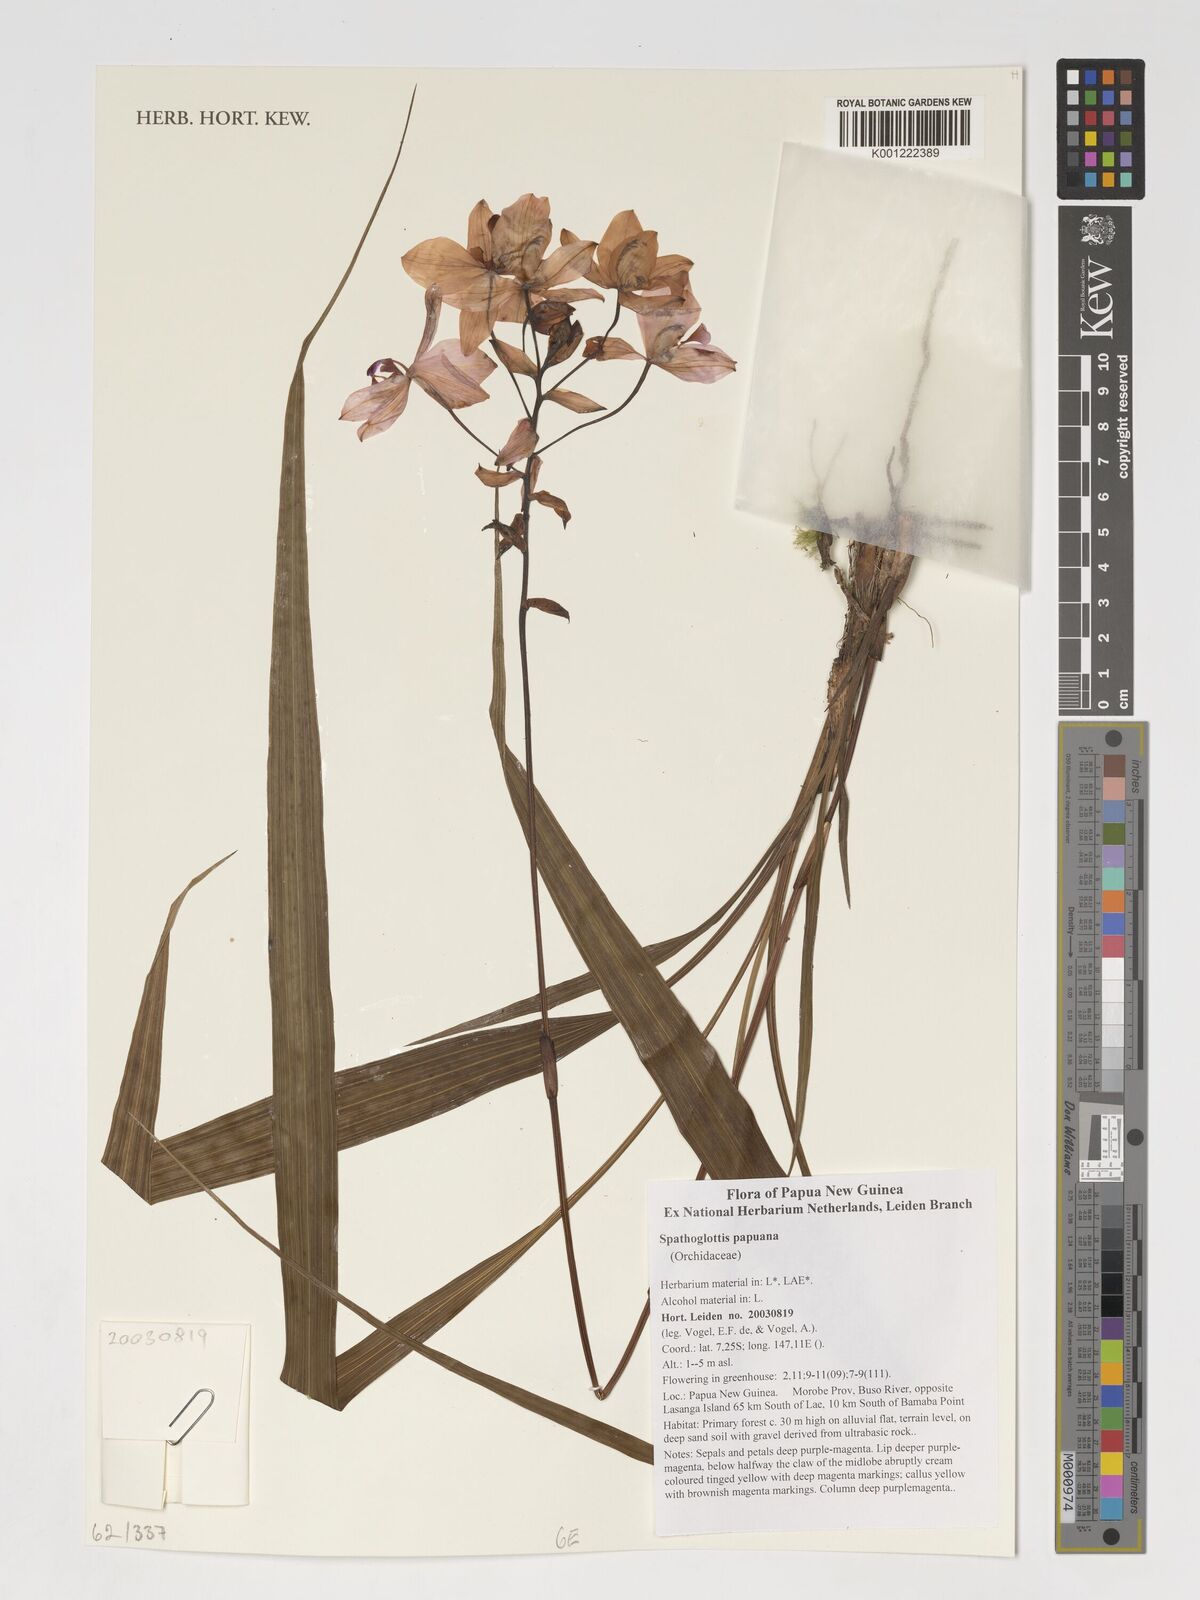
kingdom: Plantae
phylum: Tracheophyta
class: Liliopsida
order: Asparagales
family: Orchidaceae
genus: Spathoglottis
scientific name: Spathoglottis papuana
